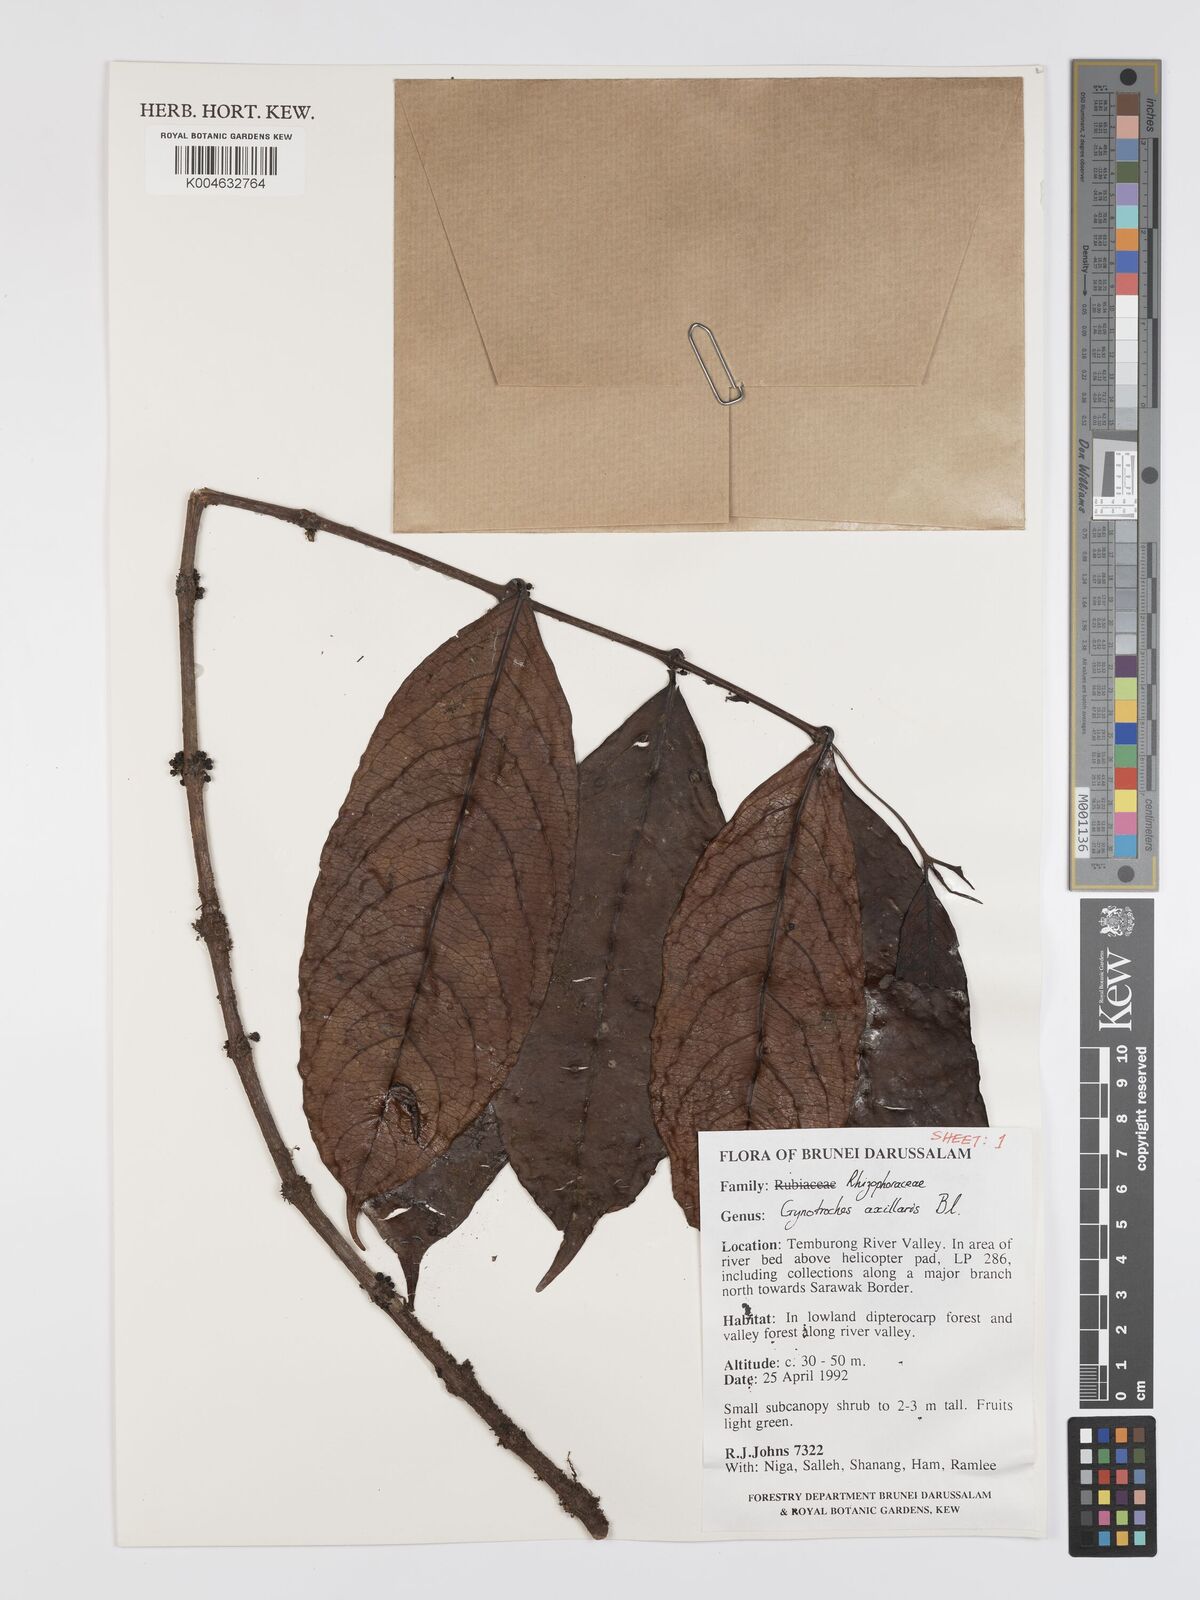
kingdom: Plantae
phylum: Tracheophyta
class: Magnoliopsida
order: Malpighiales
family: Rhizophoraceae
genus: Gynotroches
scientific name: Gynotroches axillaris
